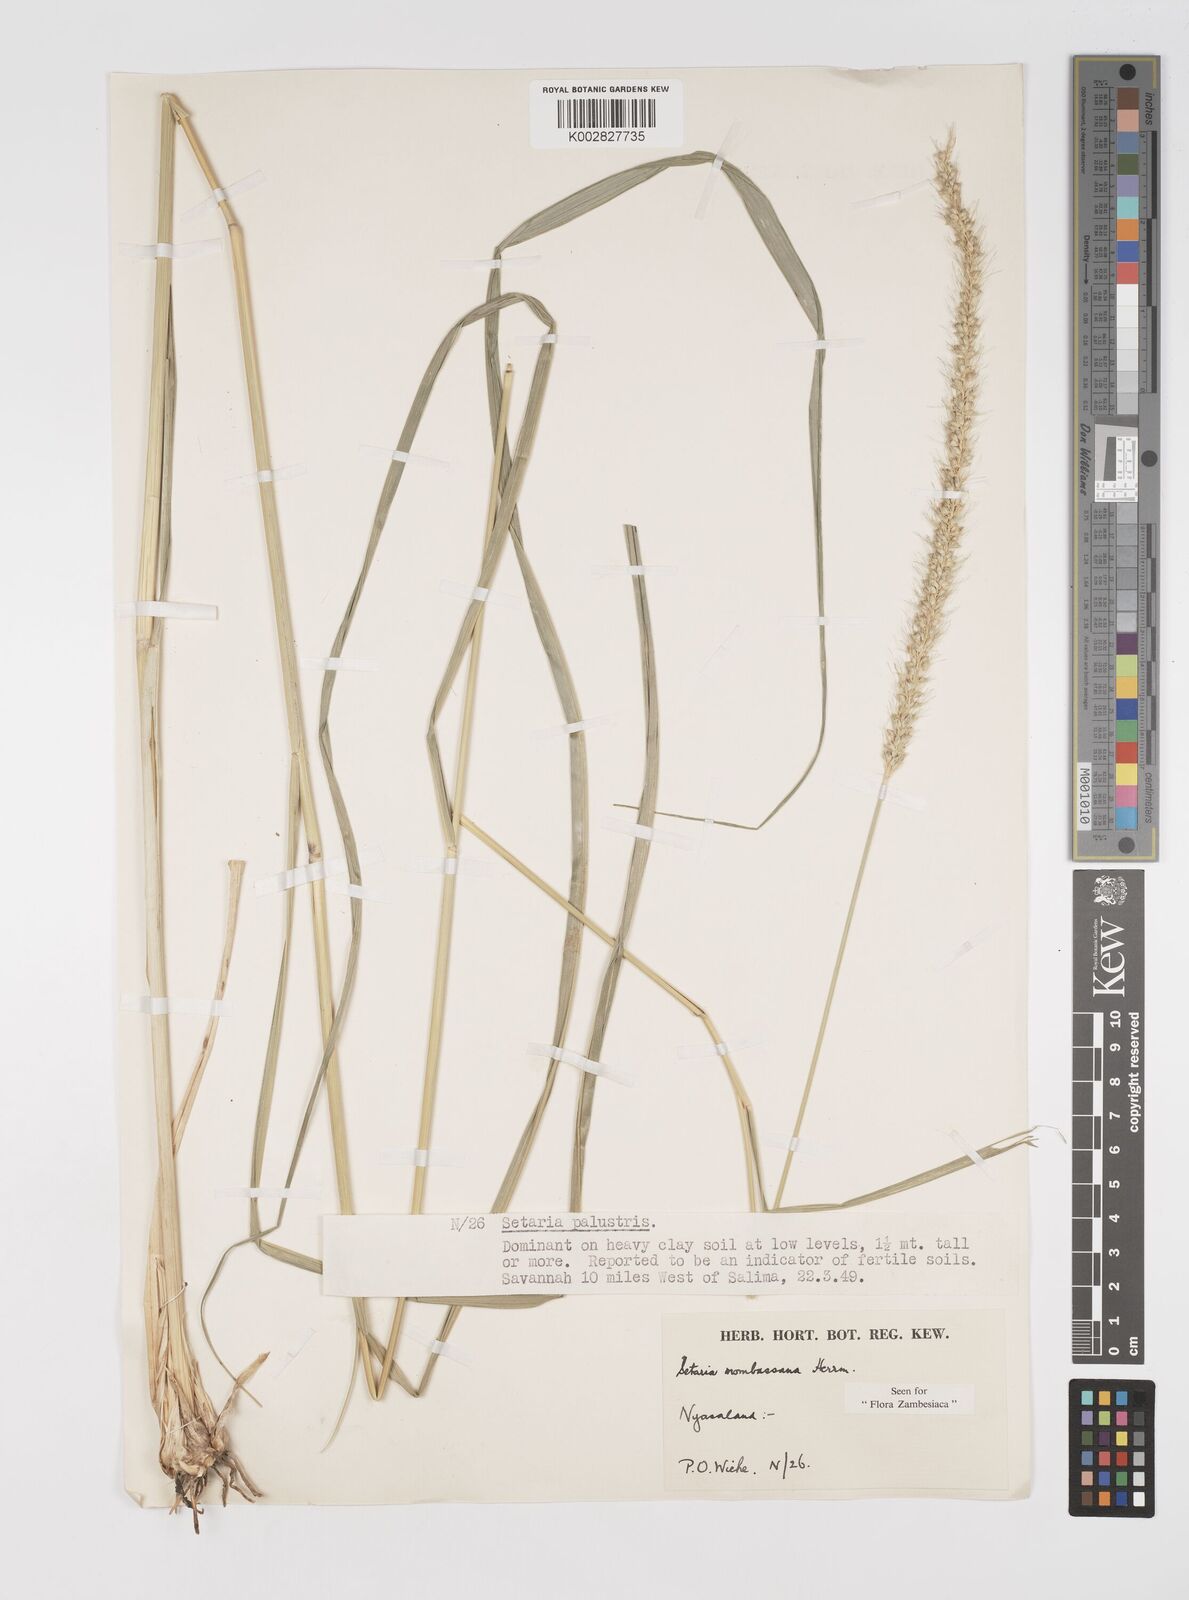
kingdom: Plantae
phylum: Tracheophyta
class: Liliopsida
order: Poales
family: Poaceae
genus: Setaria
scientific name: Setaria incrassata
